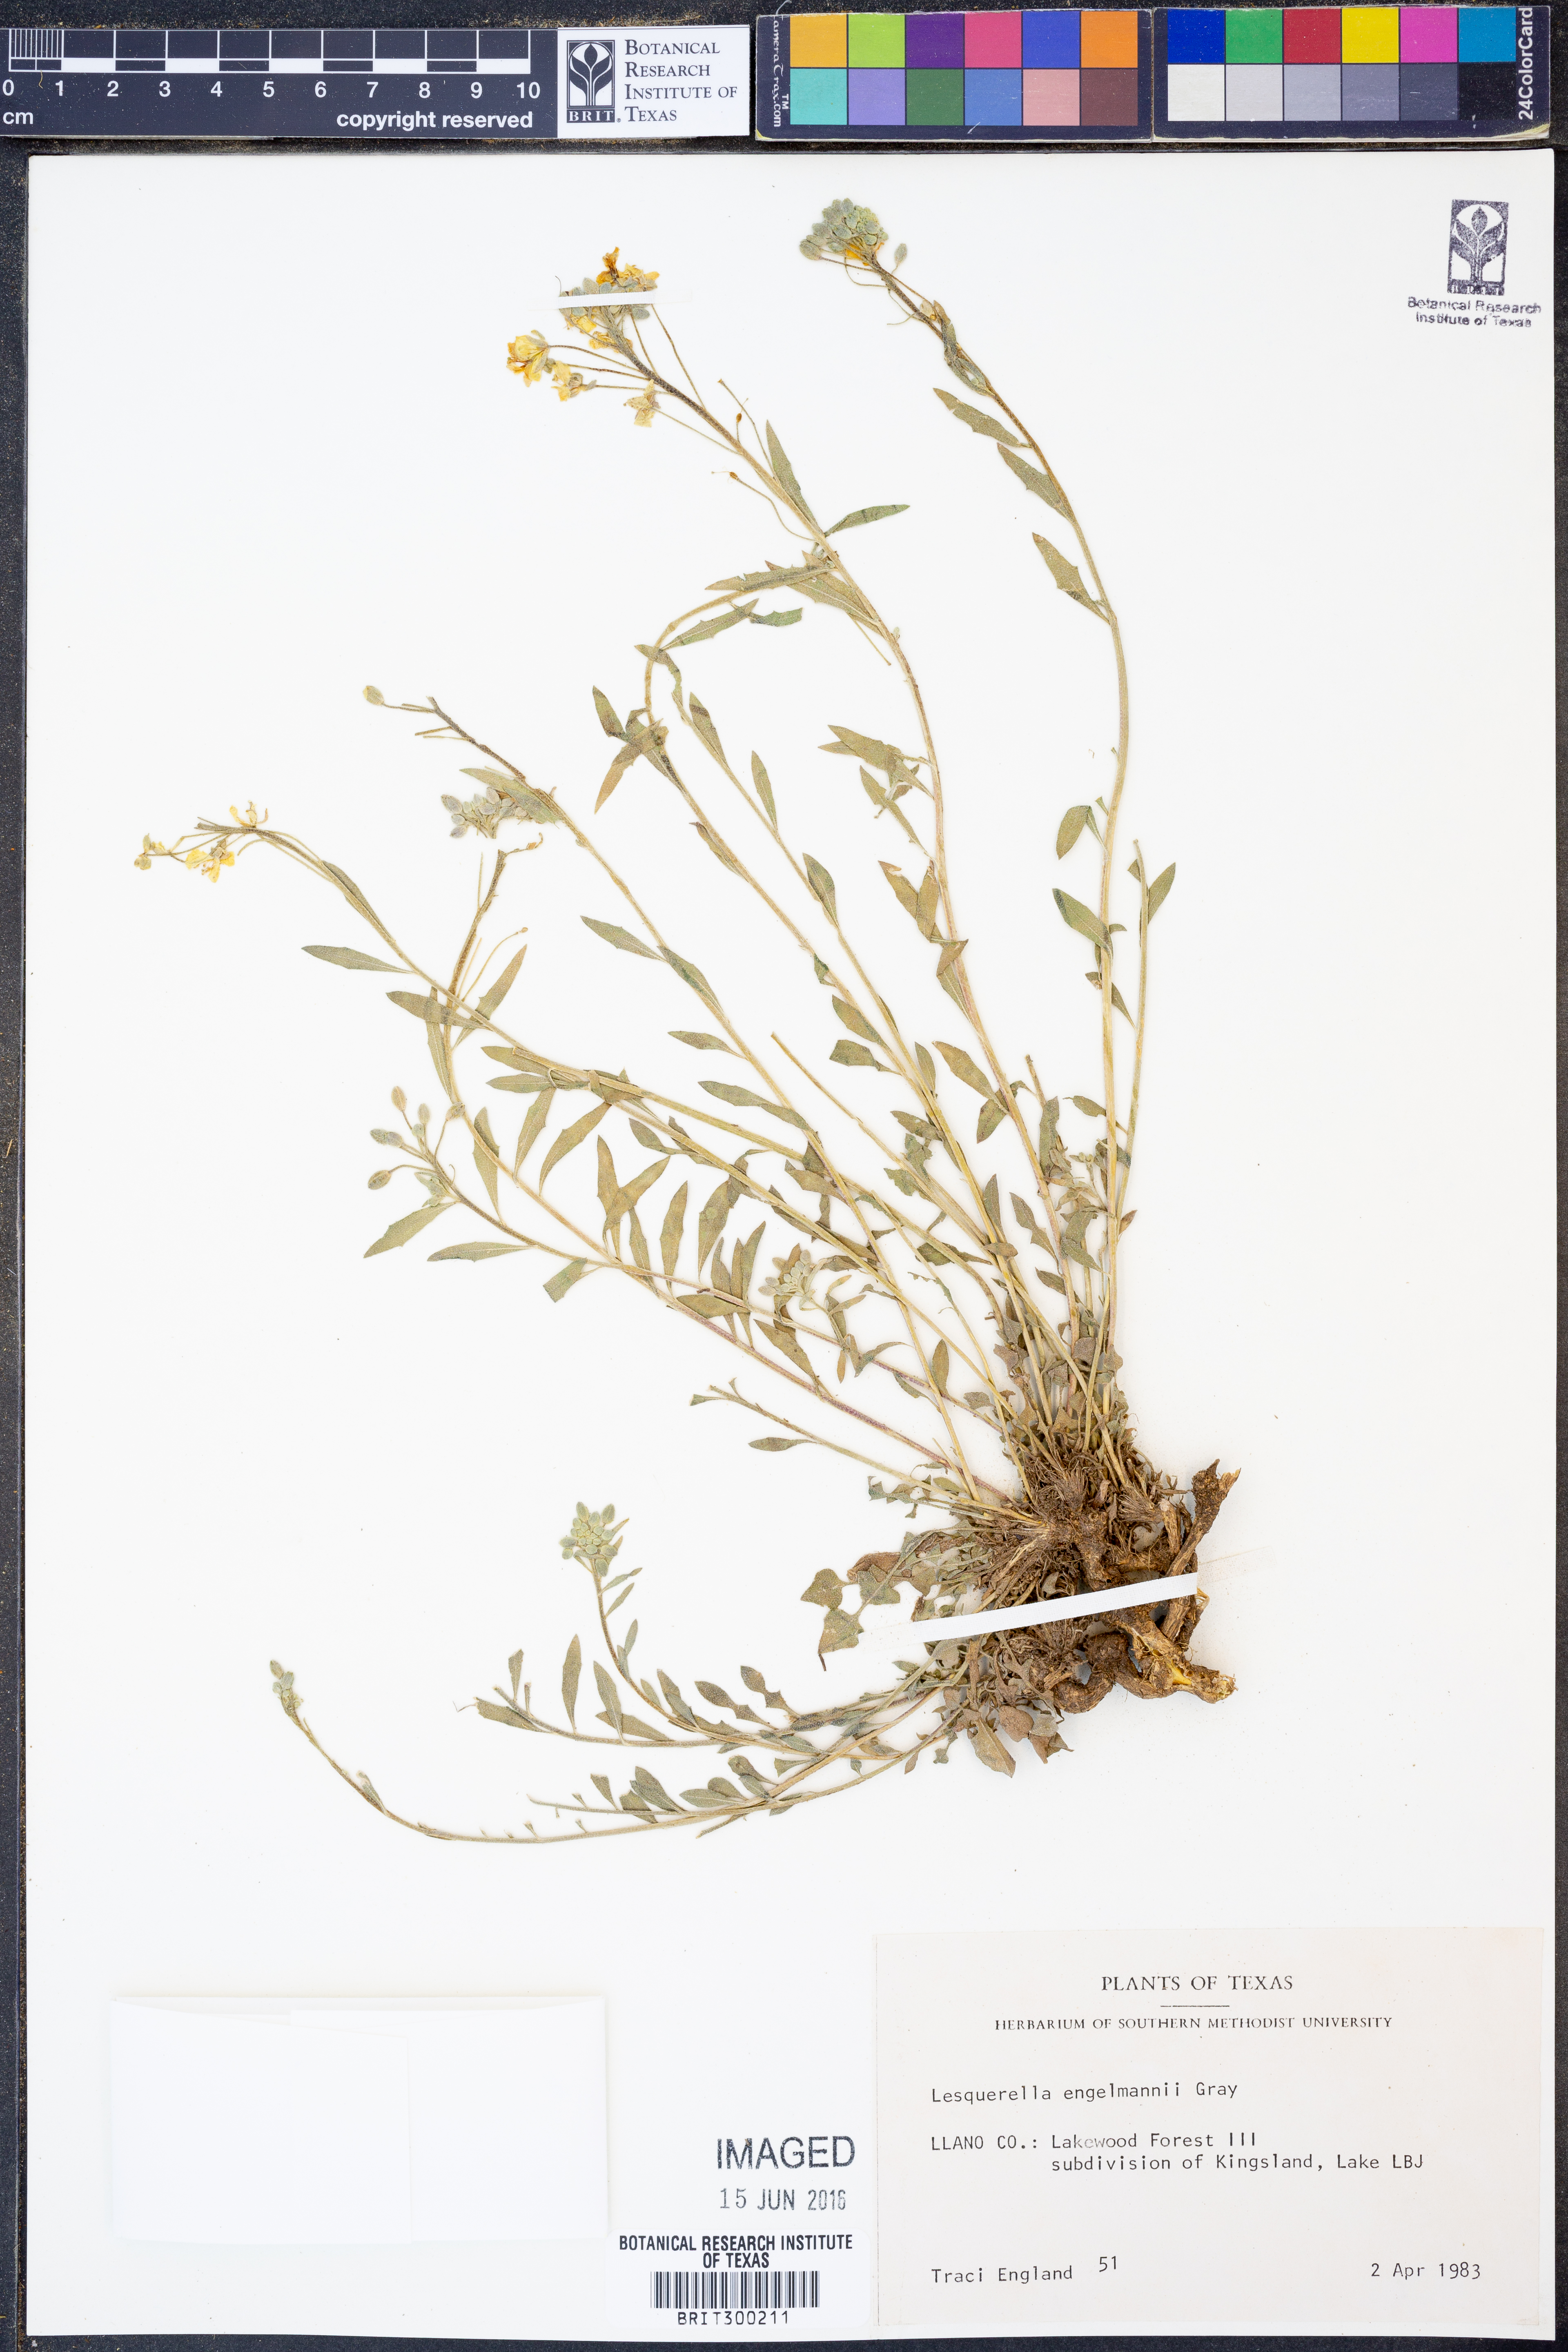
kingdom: Plantae
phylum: Tracheophyta
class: Magnoliopsida
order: Brassicales
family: Brassicaceae
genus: Physaria
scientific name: Physaria engelmannii
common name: Engelmann's bladderpod
